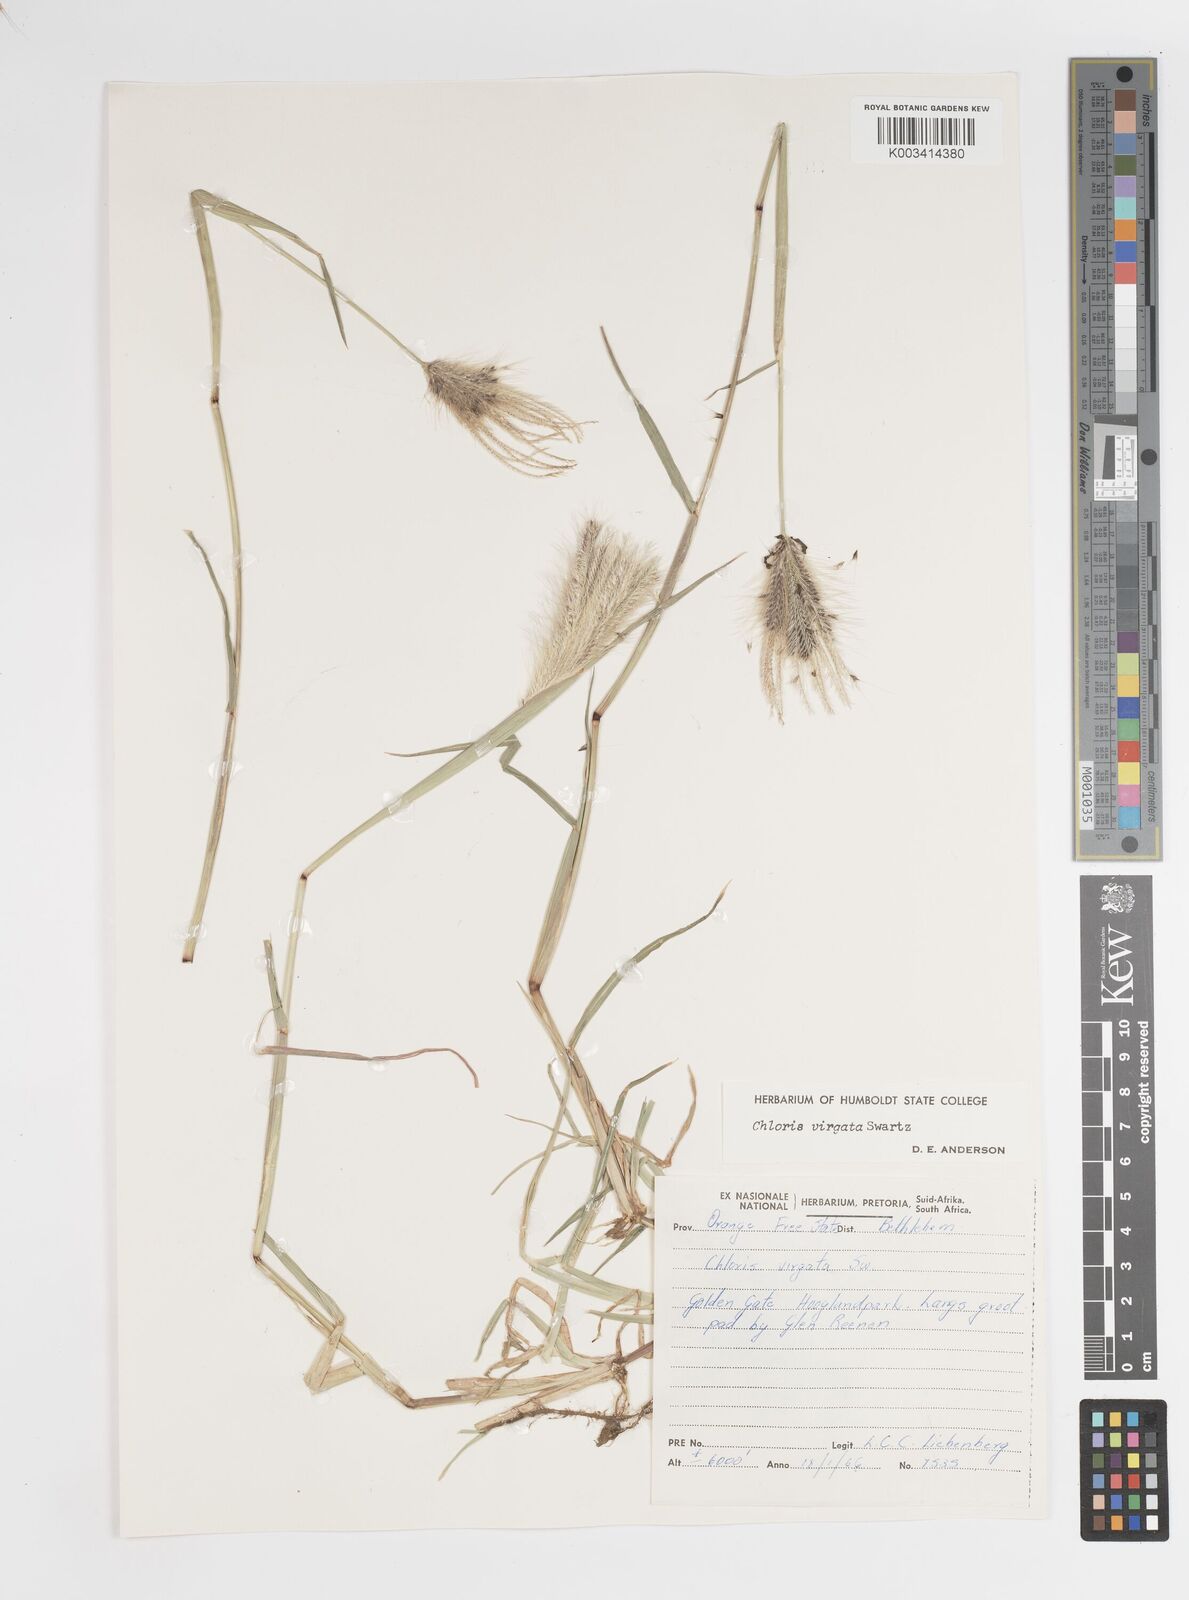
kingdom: Plantae
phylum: Tracheophyta
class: Liliopsida
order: Poales
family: Poaceae
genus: Chloris
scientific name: Chloris virgata
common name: Feathery rhodes-grass
